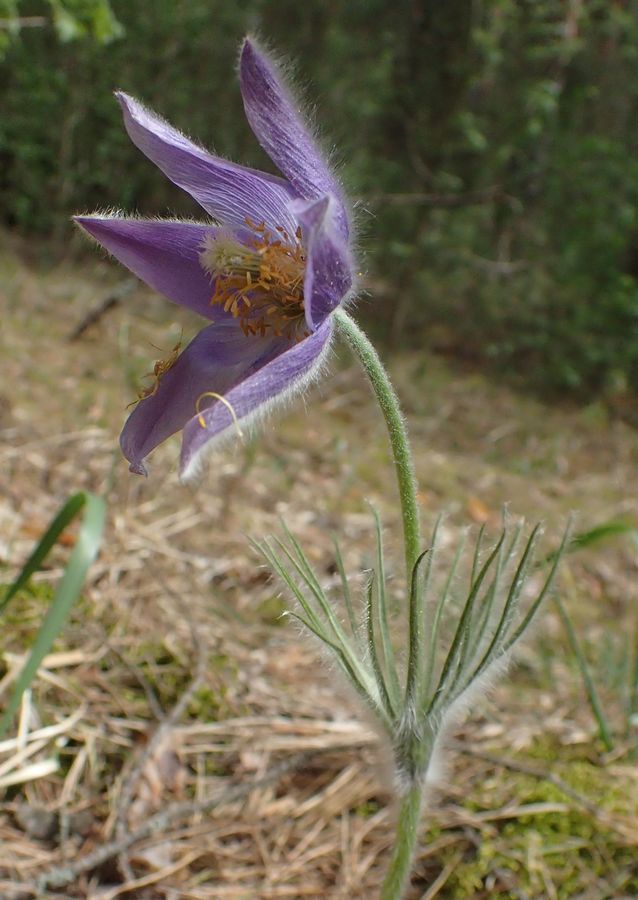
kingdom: Plantae
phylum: Tracheophyta
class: Magnoliopsida
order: Ranunculales
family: Ranunculaceae
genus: Pulsatilla
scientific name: Pulsatilla herba-somnii
